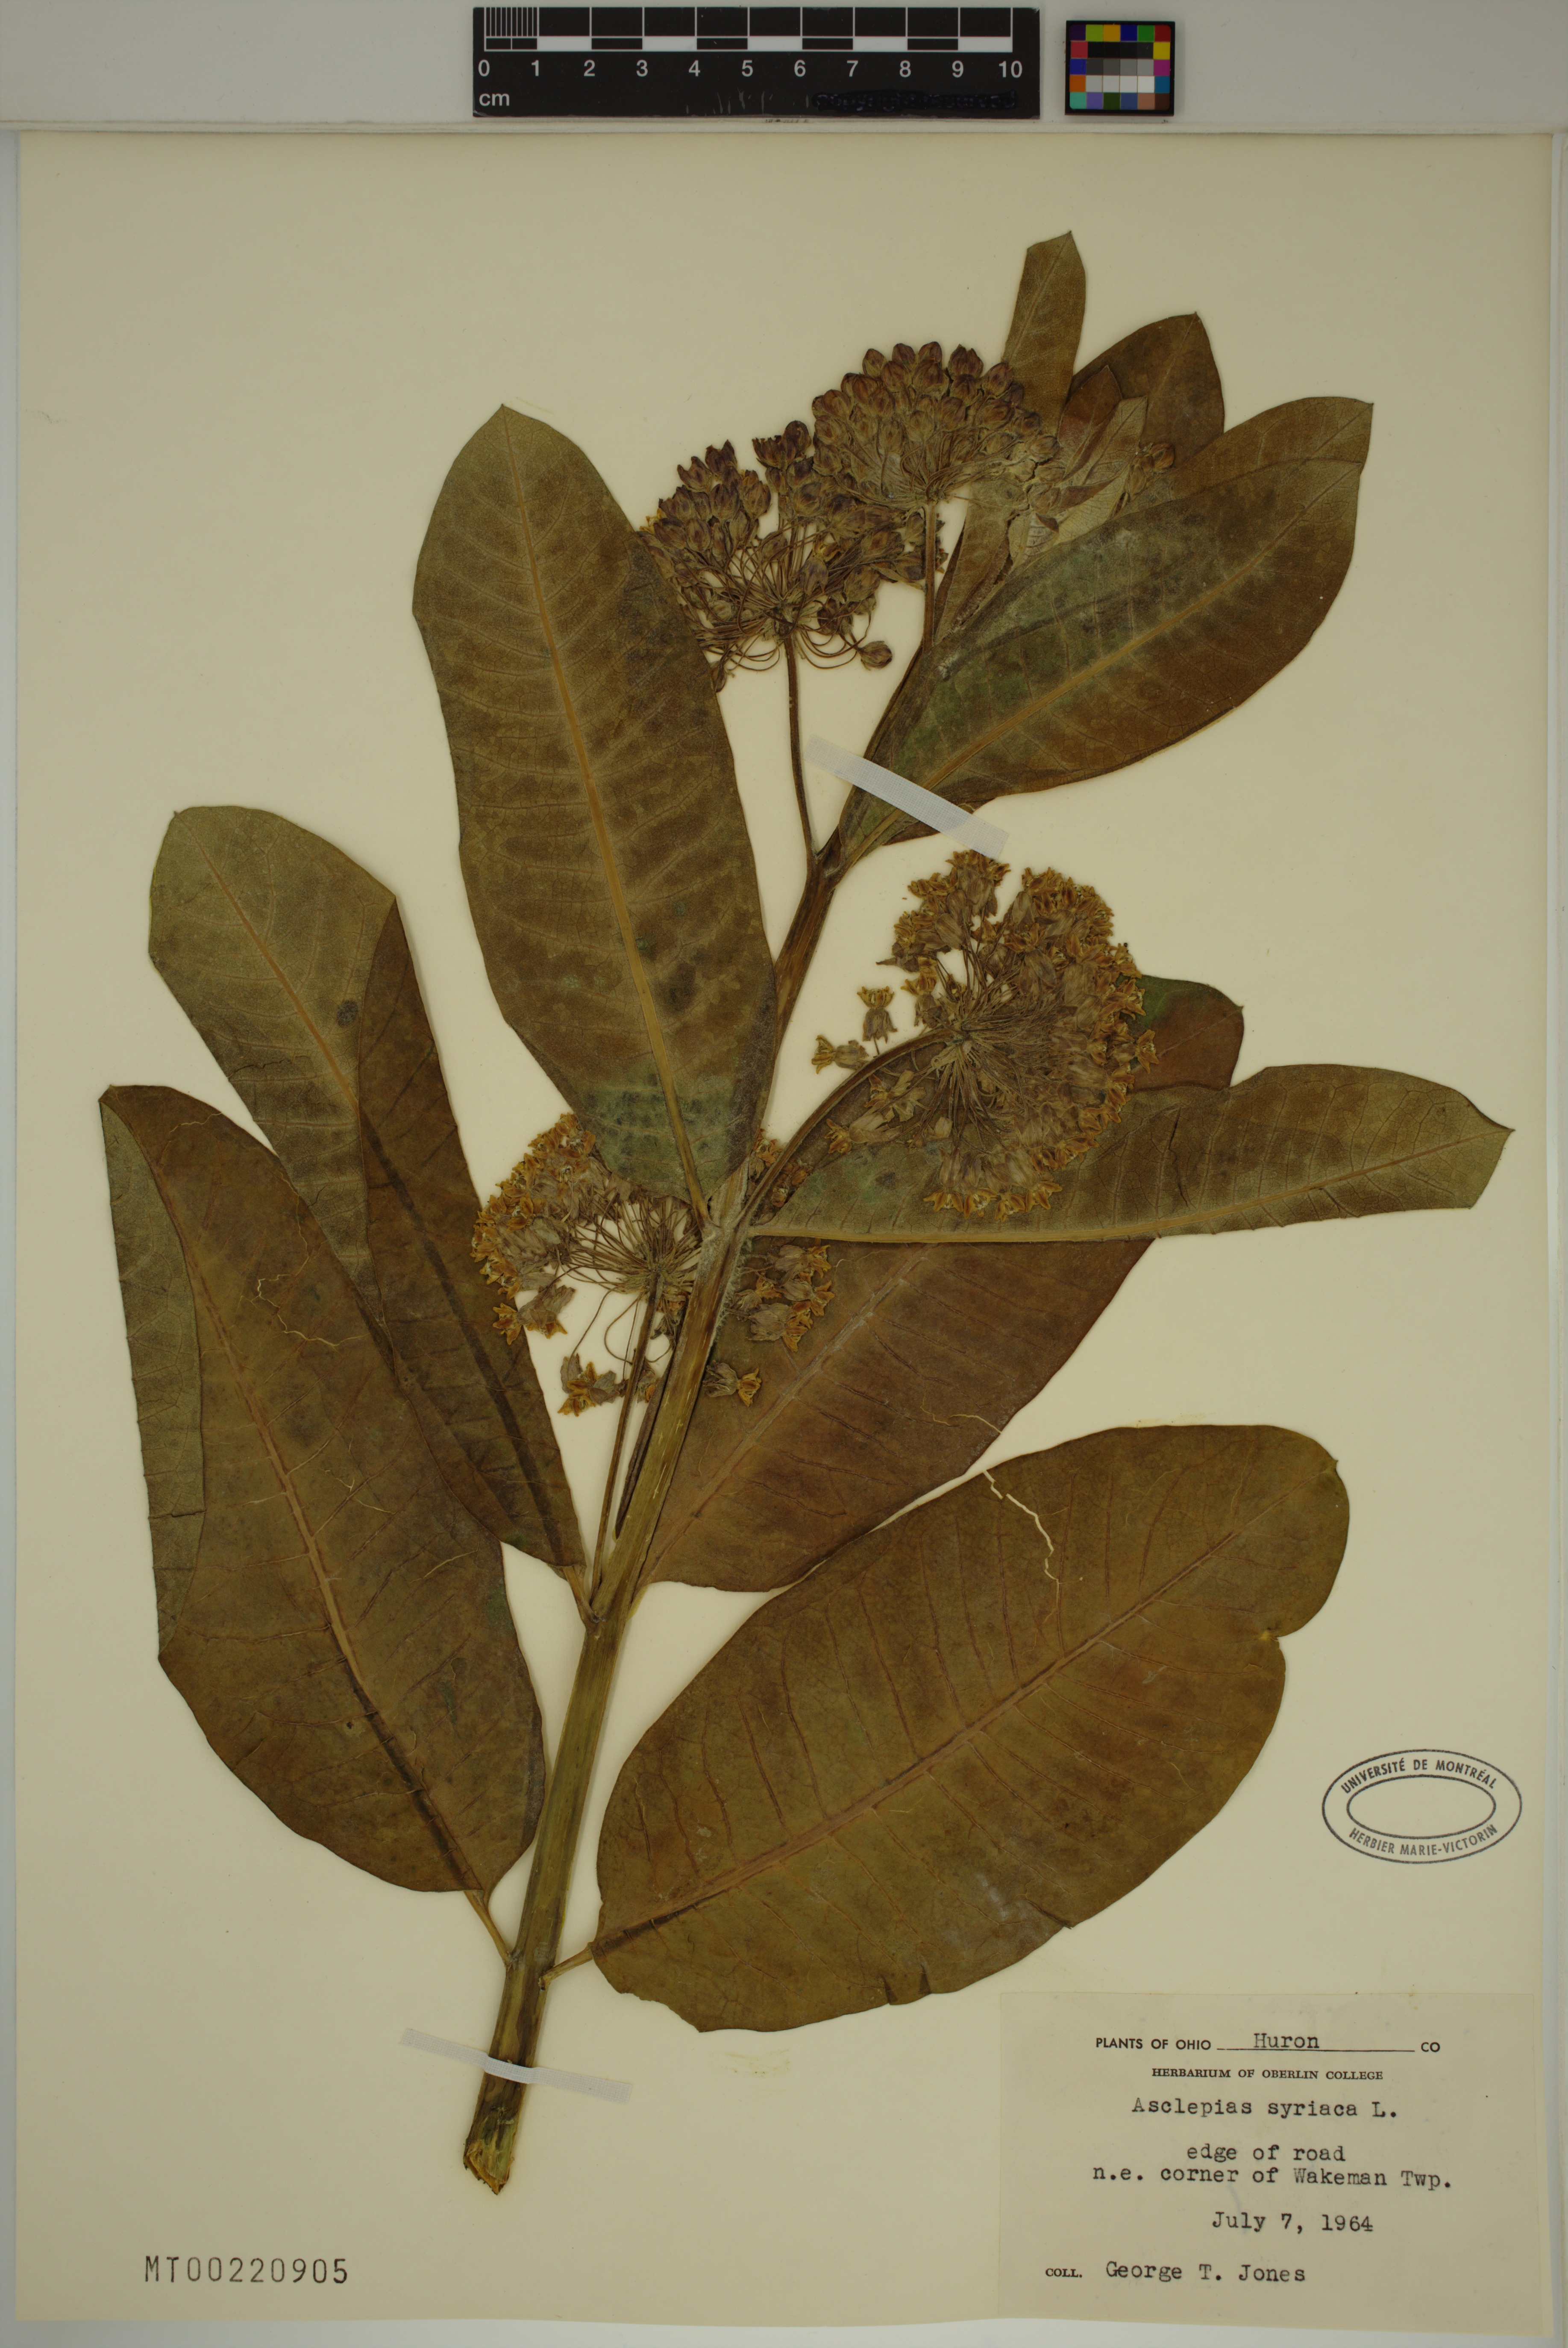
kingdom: Plantae
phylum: Tracheophyta
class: Magnoliopsida
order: Gentianales
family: Apocynaceae
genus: Asclepias
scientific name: Asclepias syriaca
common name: Common milkweed
